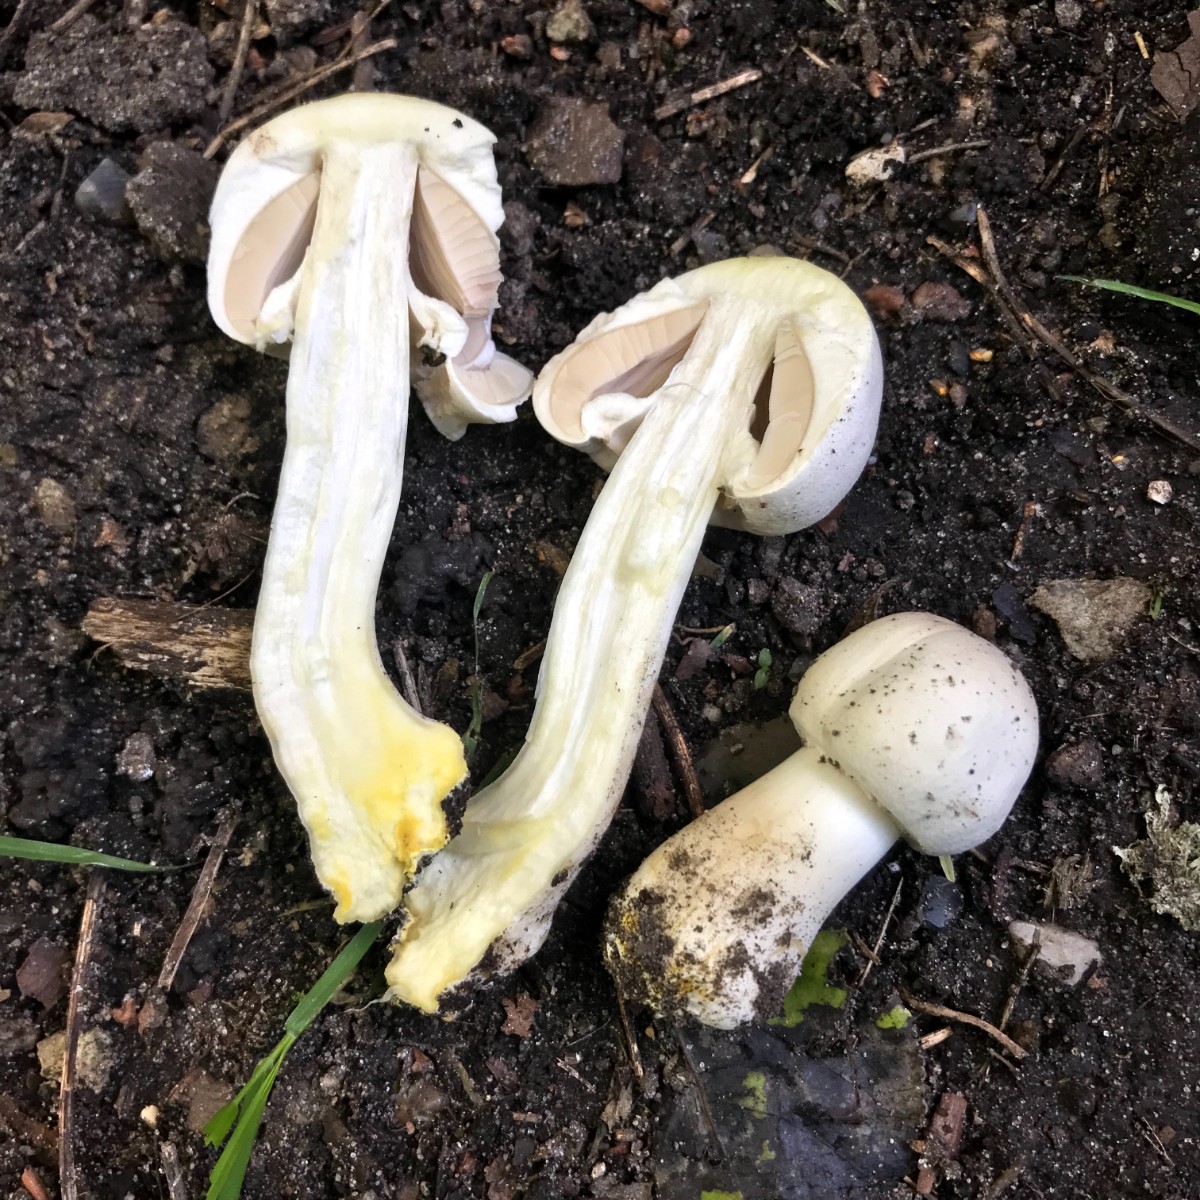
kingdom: Fungi
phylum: Basidiomycota
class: Agaricomycetes
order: Agaricales
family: Agaricaceae
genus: Agaricus
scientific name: Agaricus xanthodermus
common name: karbol-champignon
